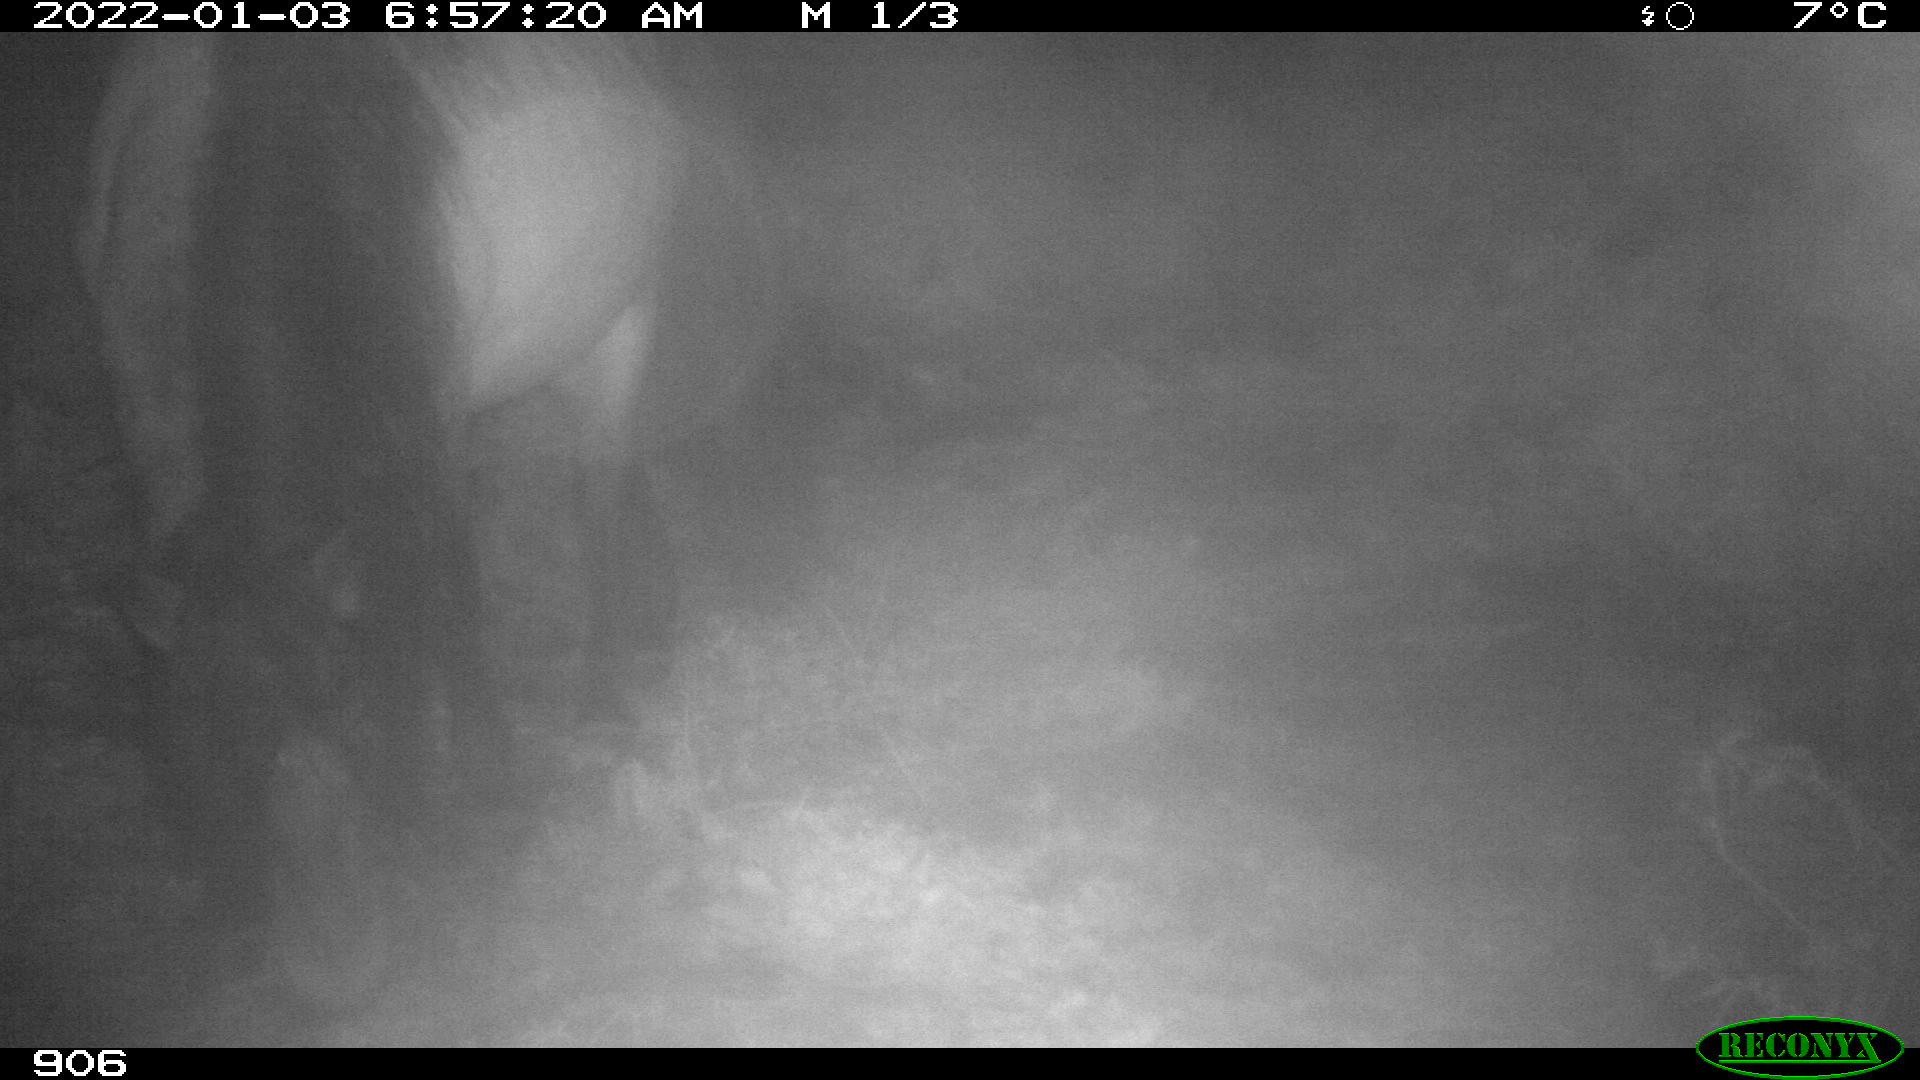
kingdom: Animalia
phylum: Chordata
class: Mammalia
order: Perissodactyla
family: Equidae
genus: Equus
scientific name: Equus caballus
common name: Horse
